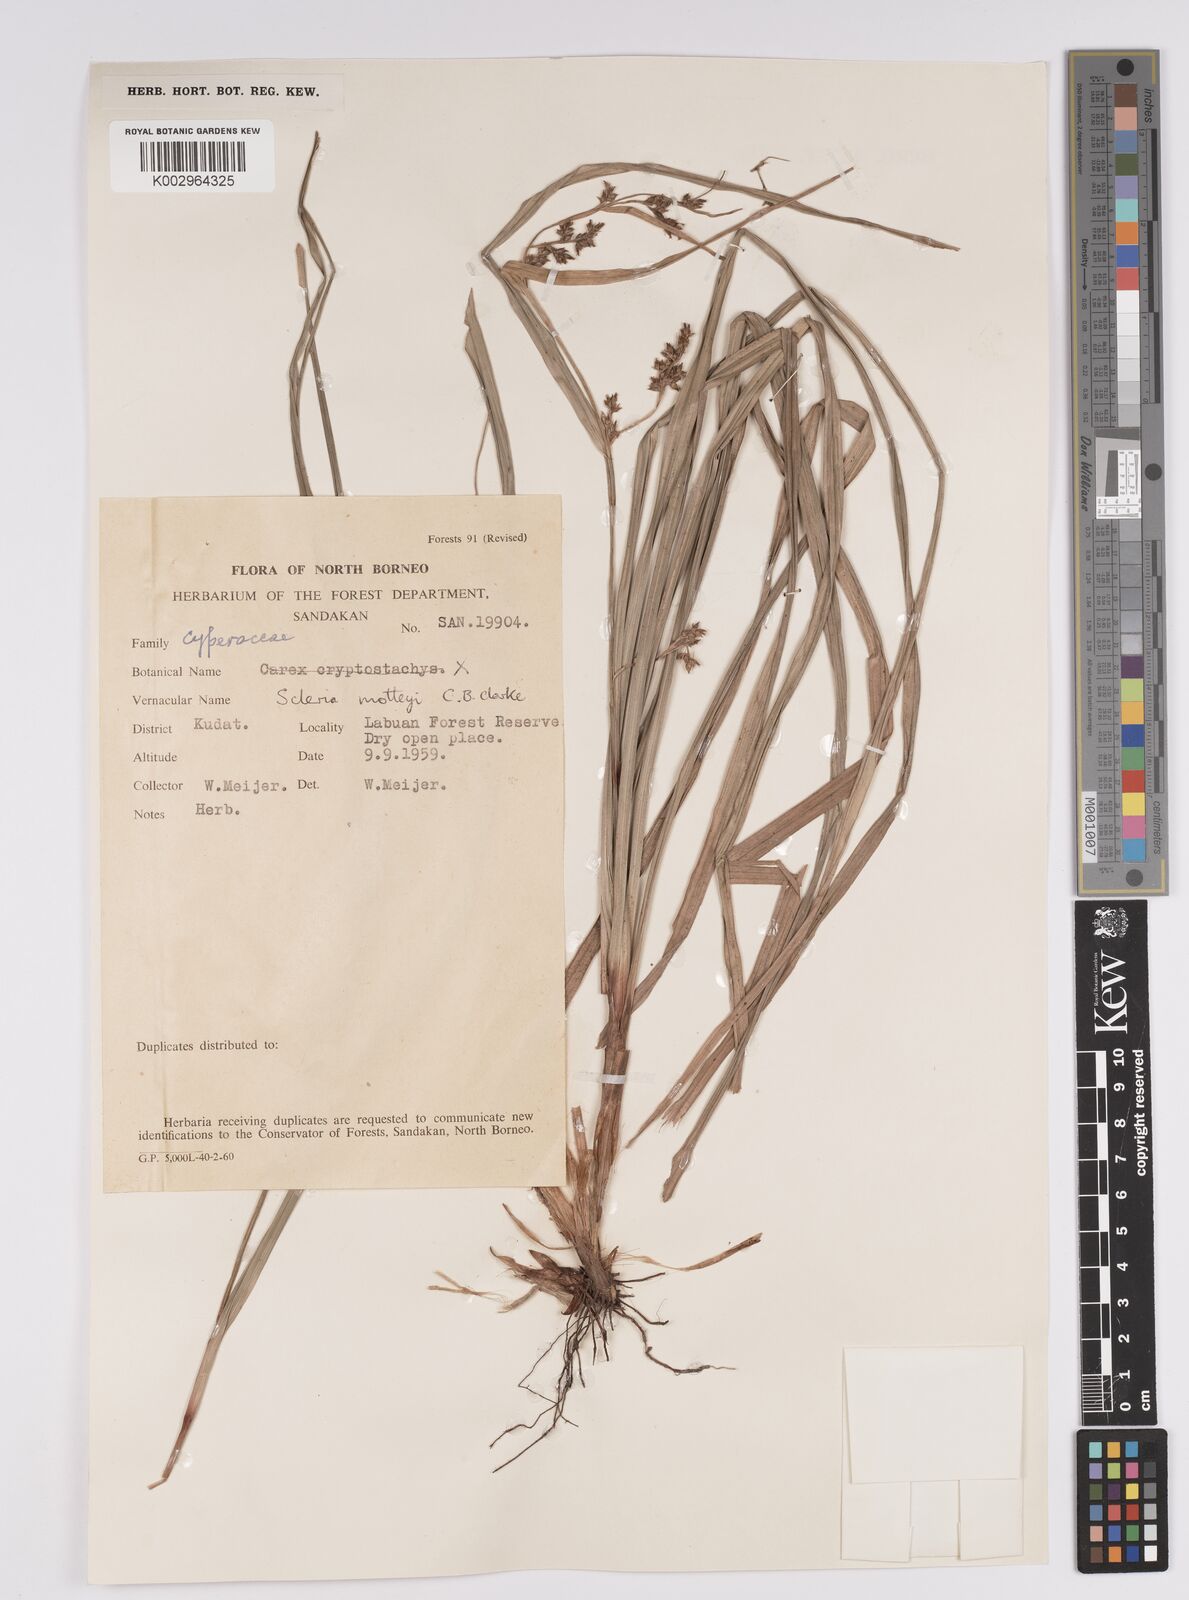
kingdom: Plantae
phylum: Tracheophyta
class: Liliopsida
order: Poales
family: Cyperaceae
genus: Scleria
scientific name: Scleria motleyi
